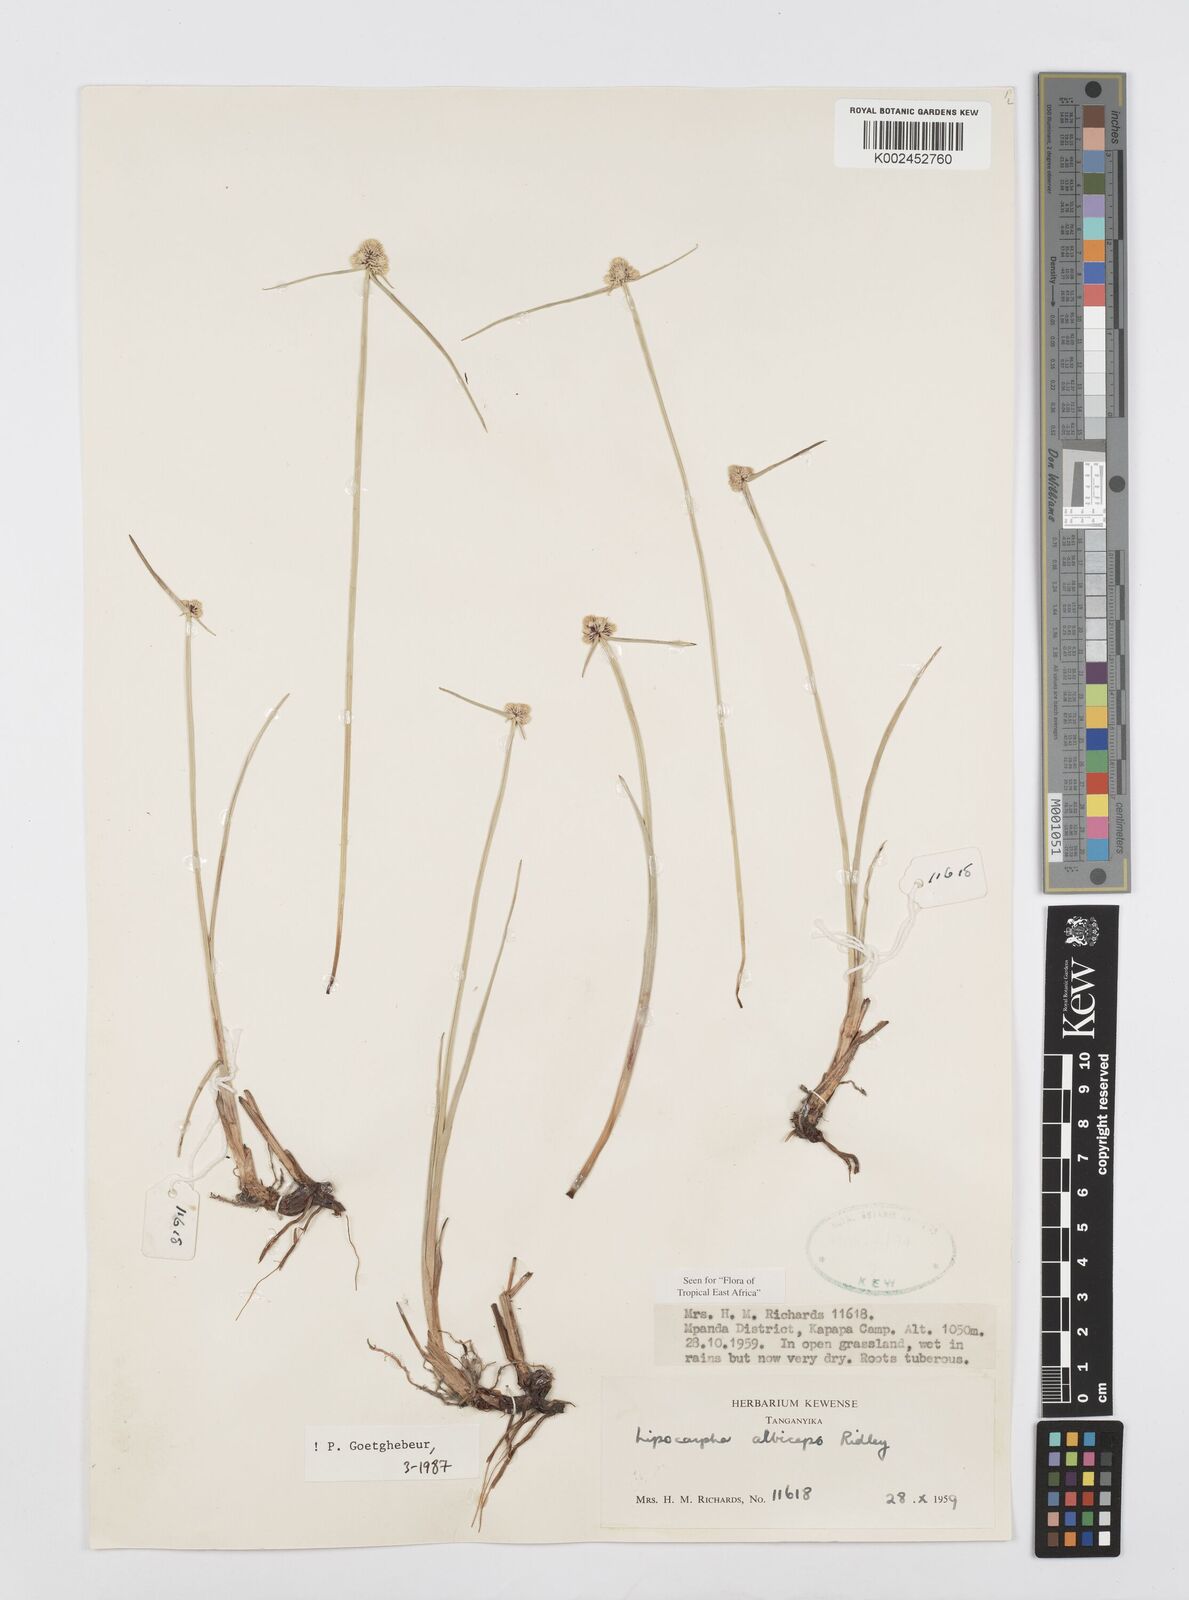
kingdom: Plantae
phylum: Tracheophyta
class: Liliopsida
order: Poales
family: Cyperaceae
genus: Cyperus
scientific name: Cyperus albiceps
